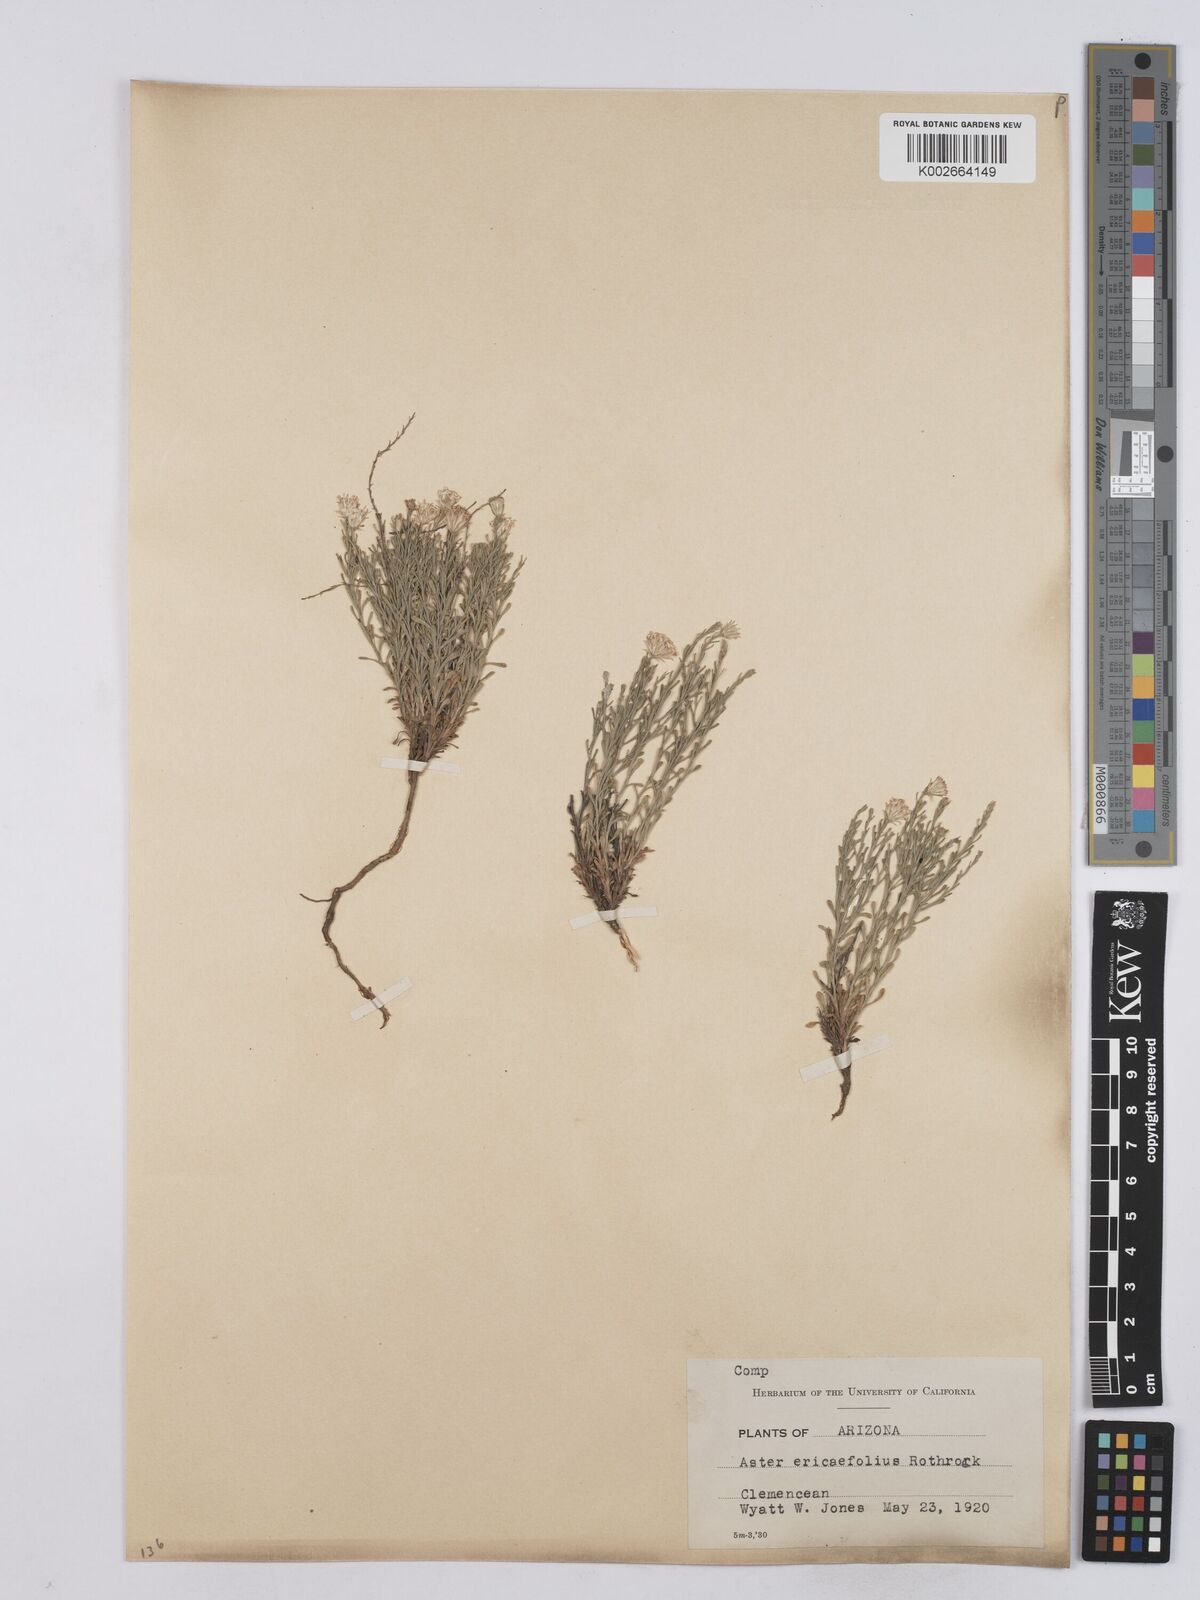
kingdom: Plantae
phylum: Tracheophyta
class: Magnoliopsida
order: Asterales
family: Asteraceae
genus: Chaetopappa
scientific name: Chaetopappa ericoides
